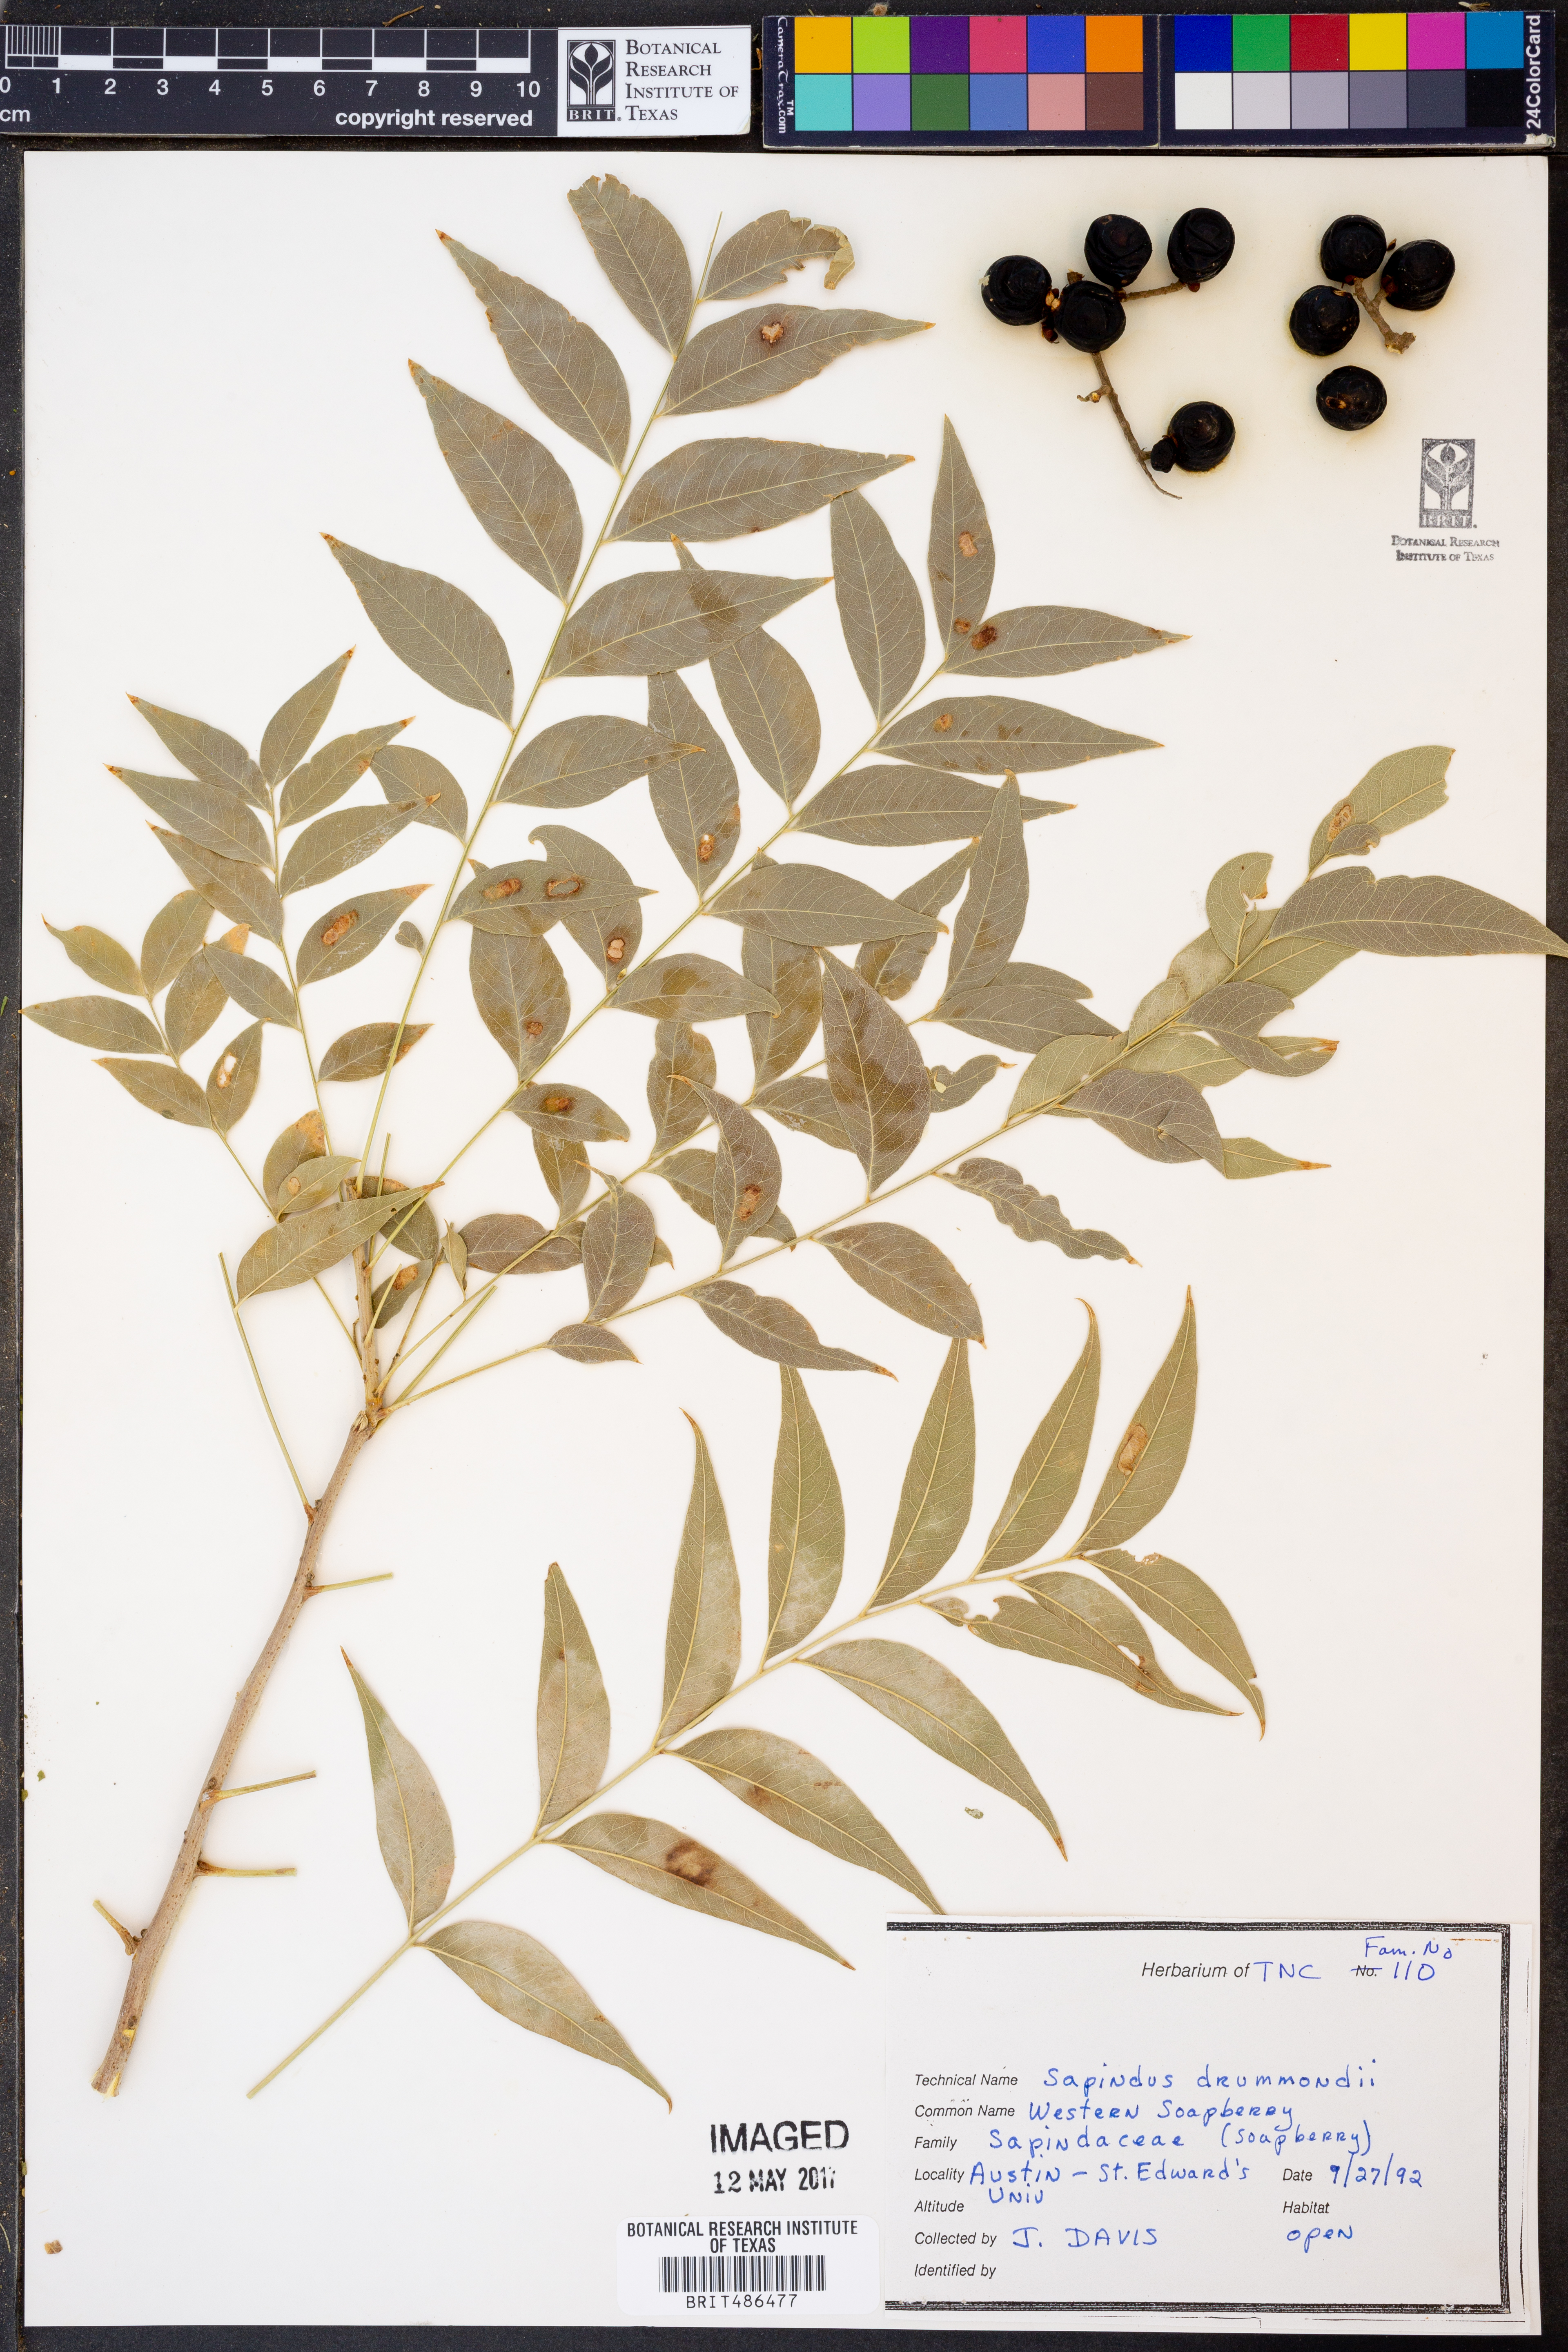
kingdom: Plantae
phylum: Tracheophyta
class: Magnoliopsida
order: Sapindales
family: Sapindaceae
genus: Sapindus
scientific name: Sapindus drummondii
